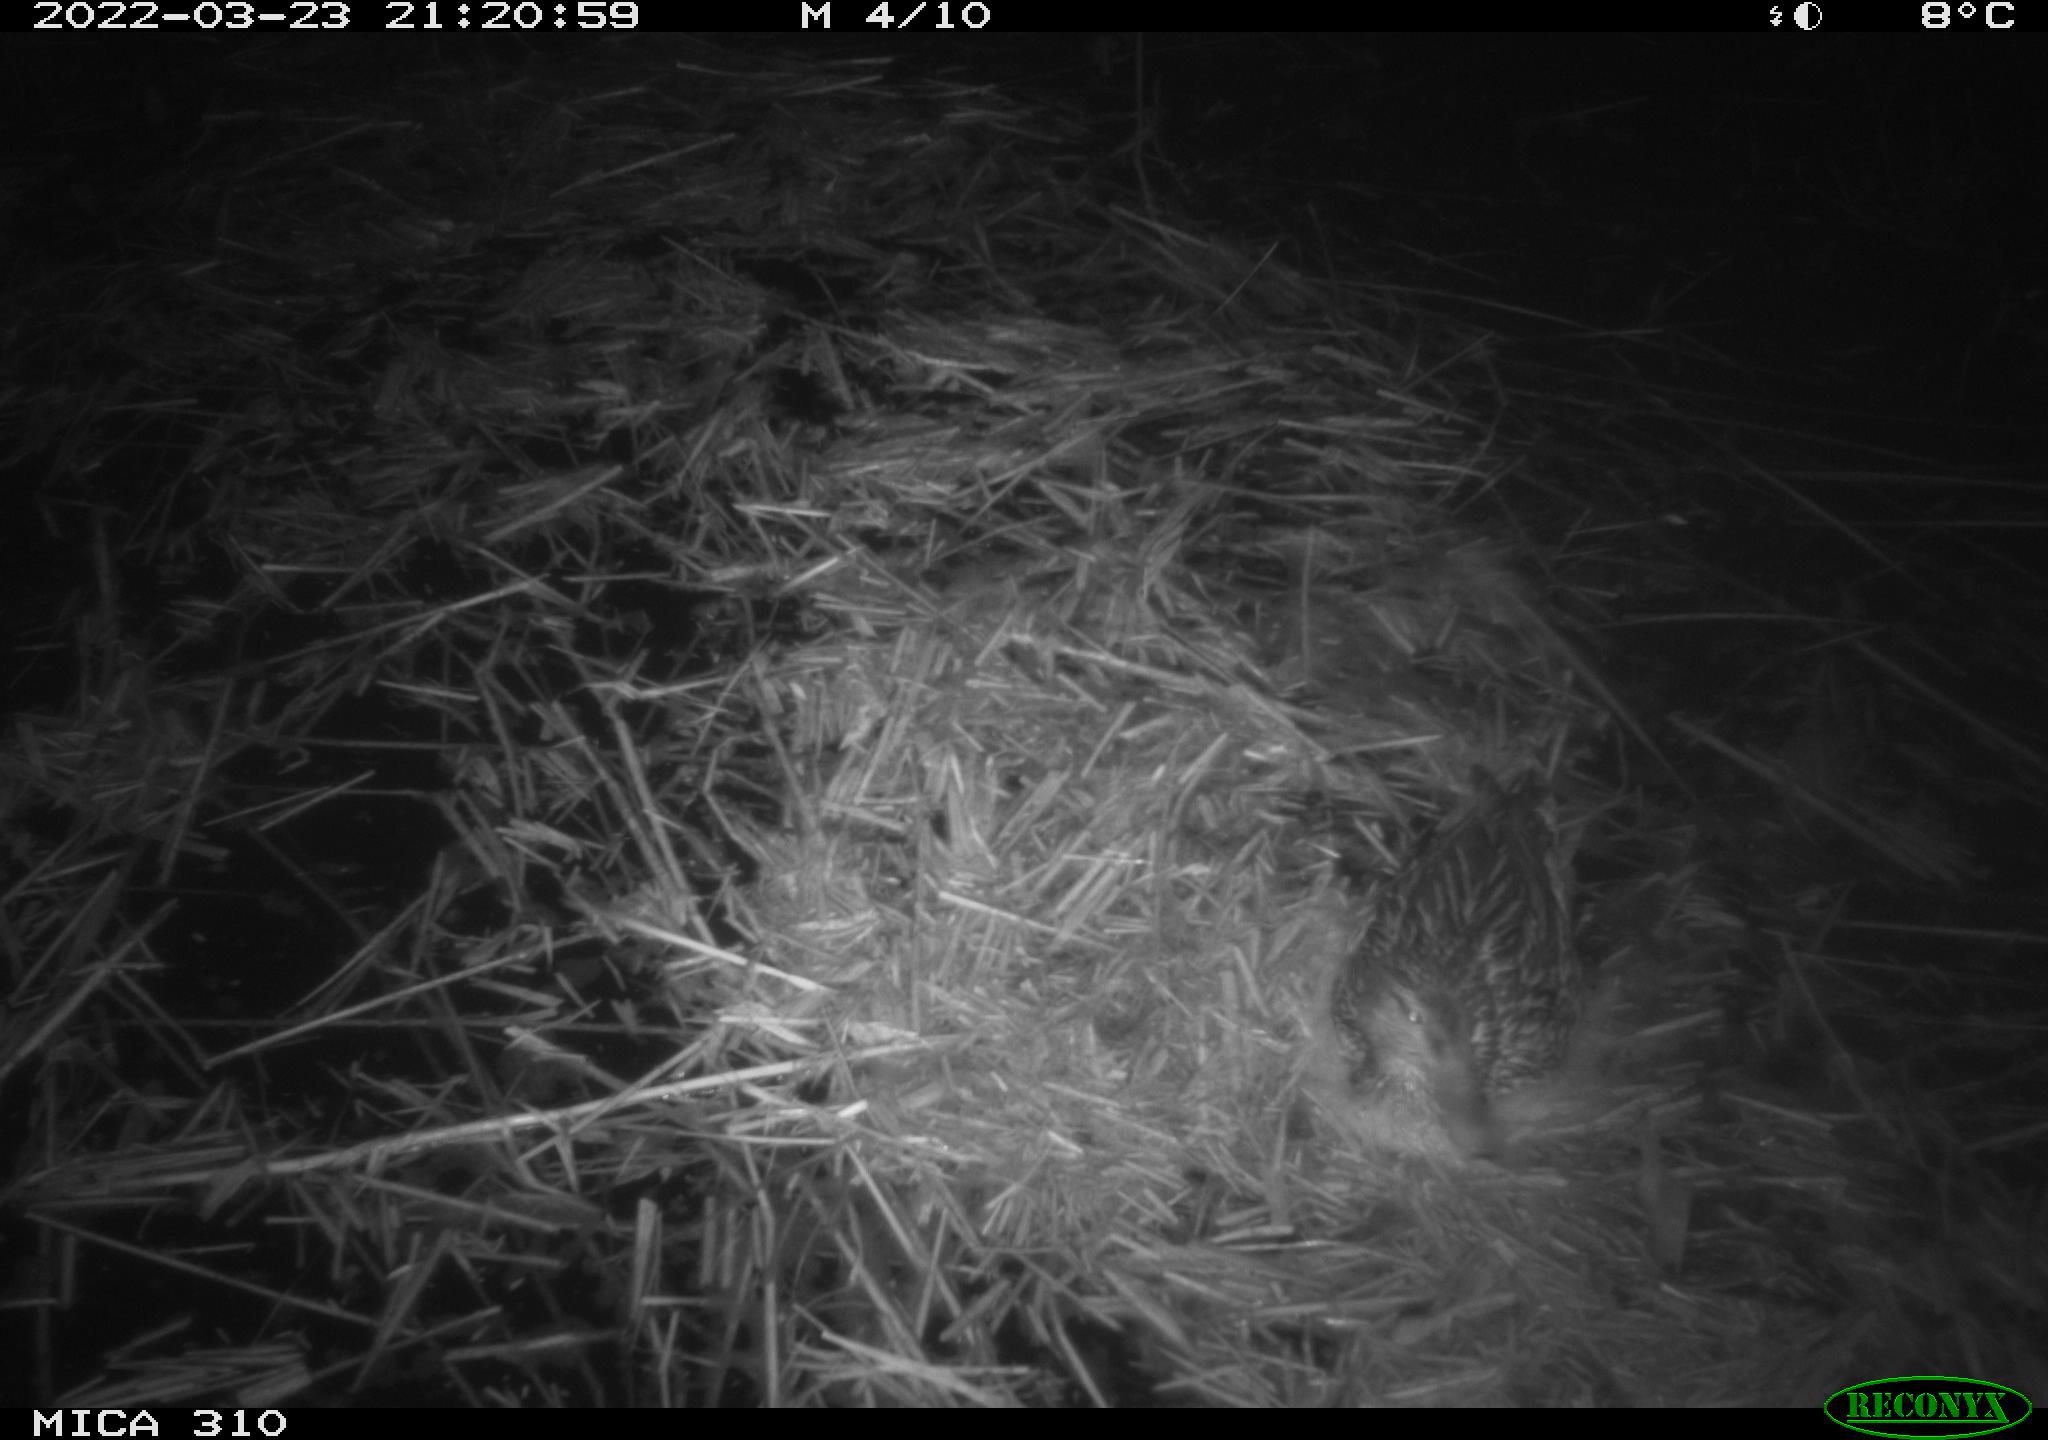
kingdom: Animalia
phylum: Chordata
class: Aves
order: Anseriformes
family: Anatidae
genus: Anas
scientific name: Anas platyrhynchos
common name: Mallard
